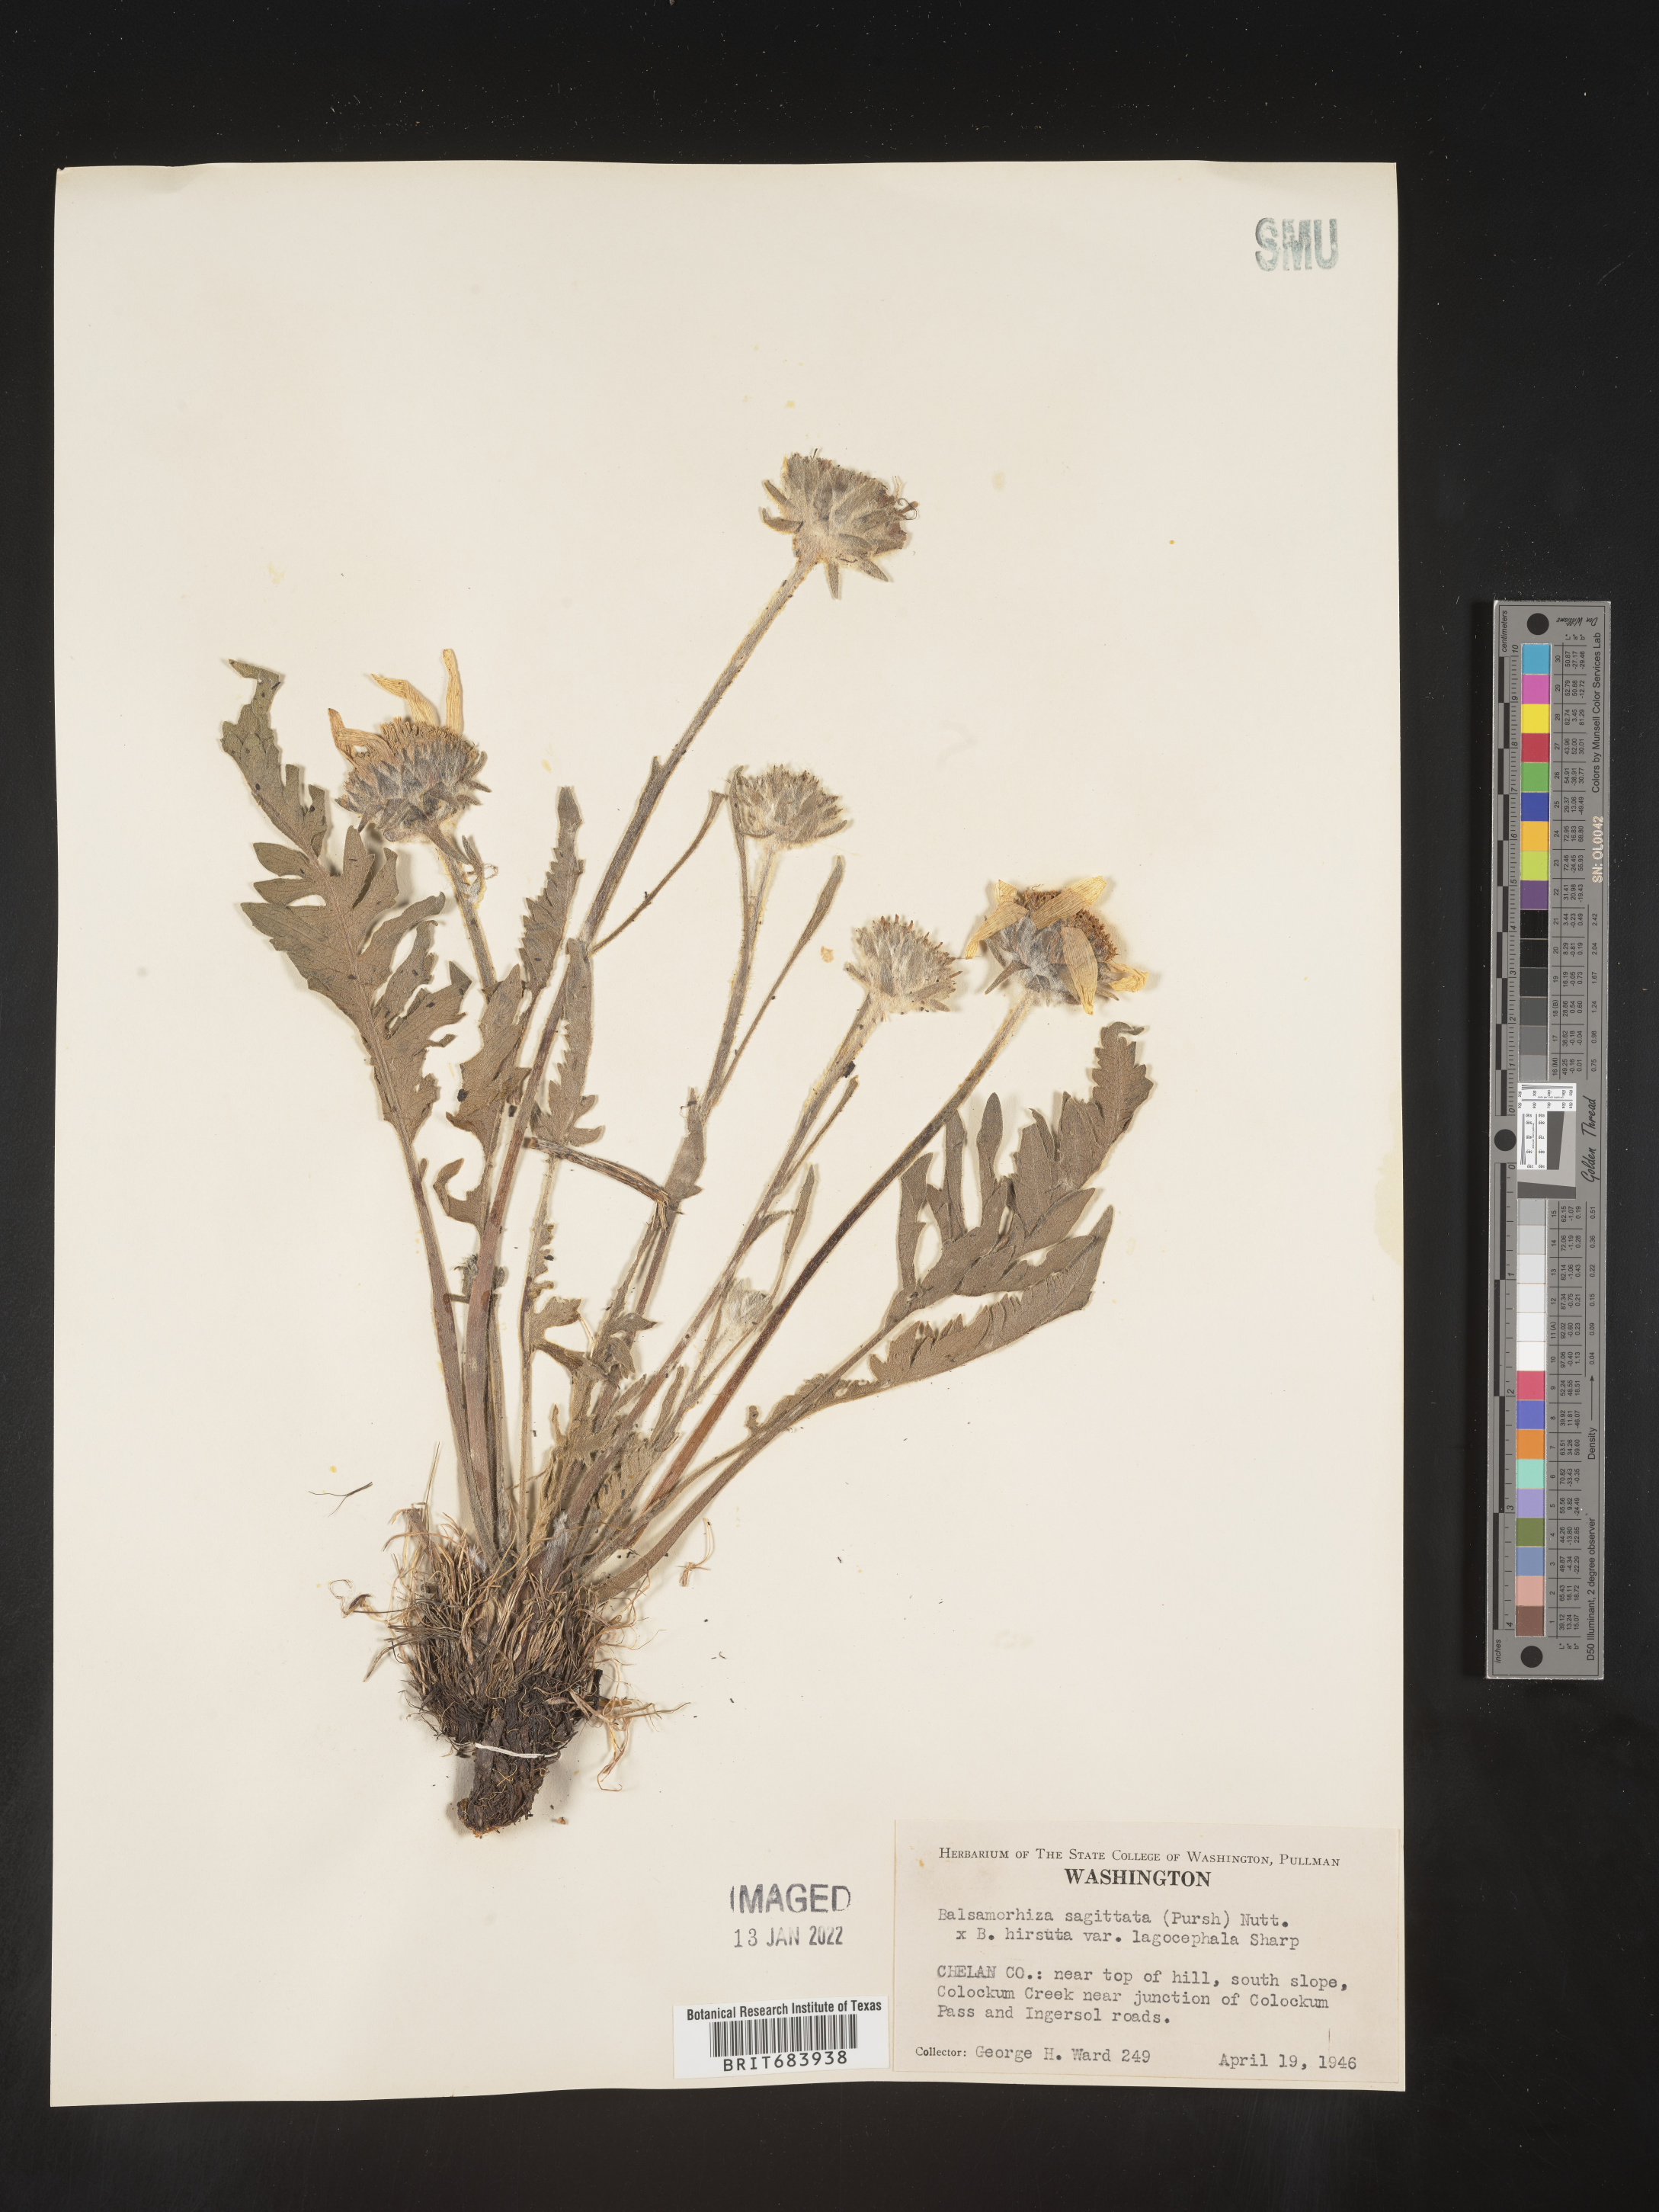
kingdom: Plantae
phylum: Tracheophyta
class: Magnoliopsida
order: Asterales
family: Asteraceae
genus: Wyethia
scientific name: Wyethia sagittata
